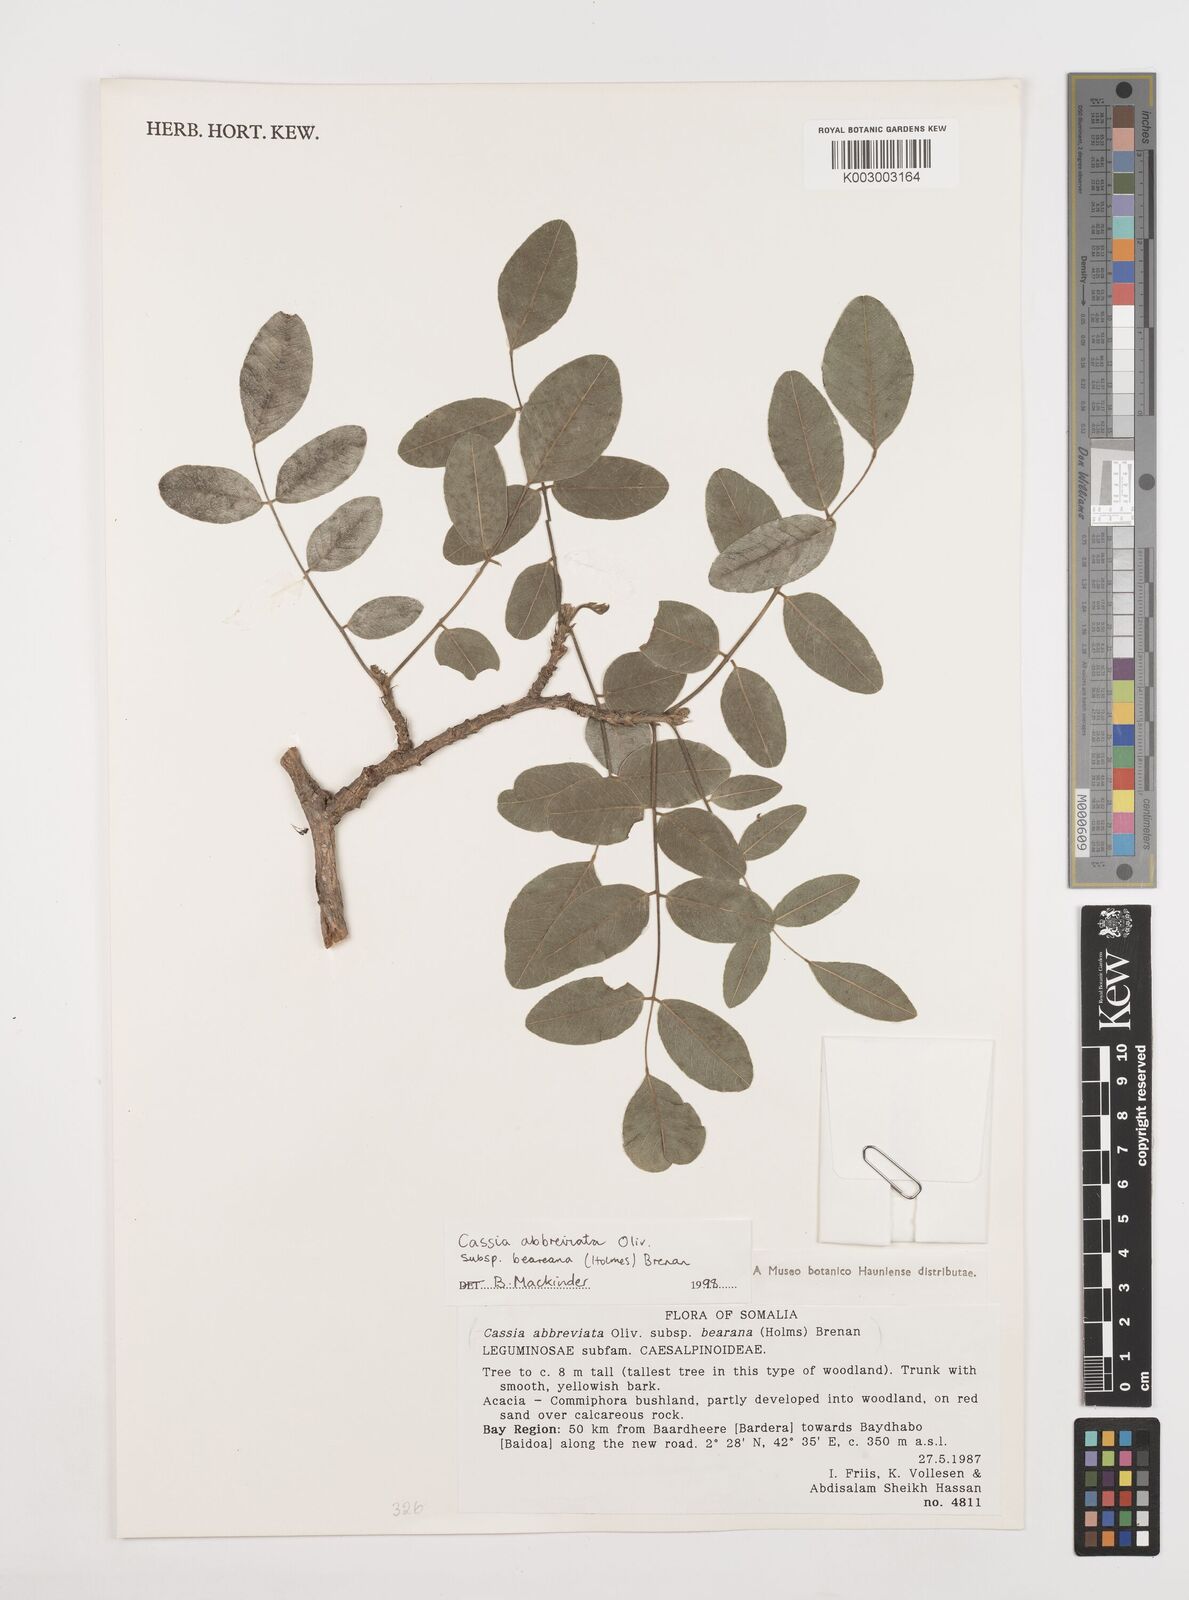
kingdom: Plantae
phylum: Tracheophyta
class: Magnoliopsida
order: Fabales
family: Fabaceae
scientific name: Fabaceae
